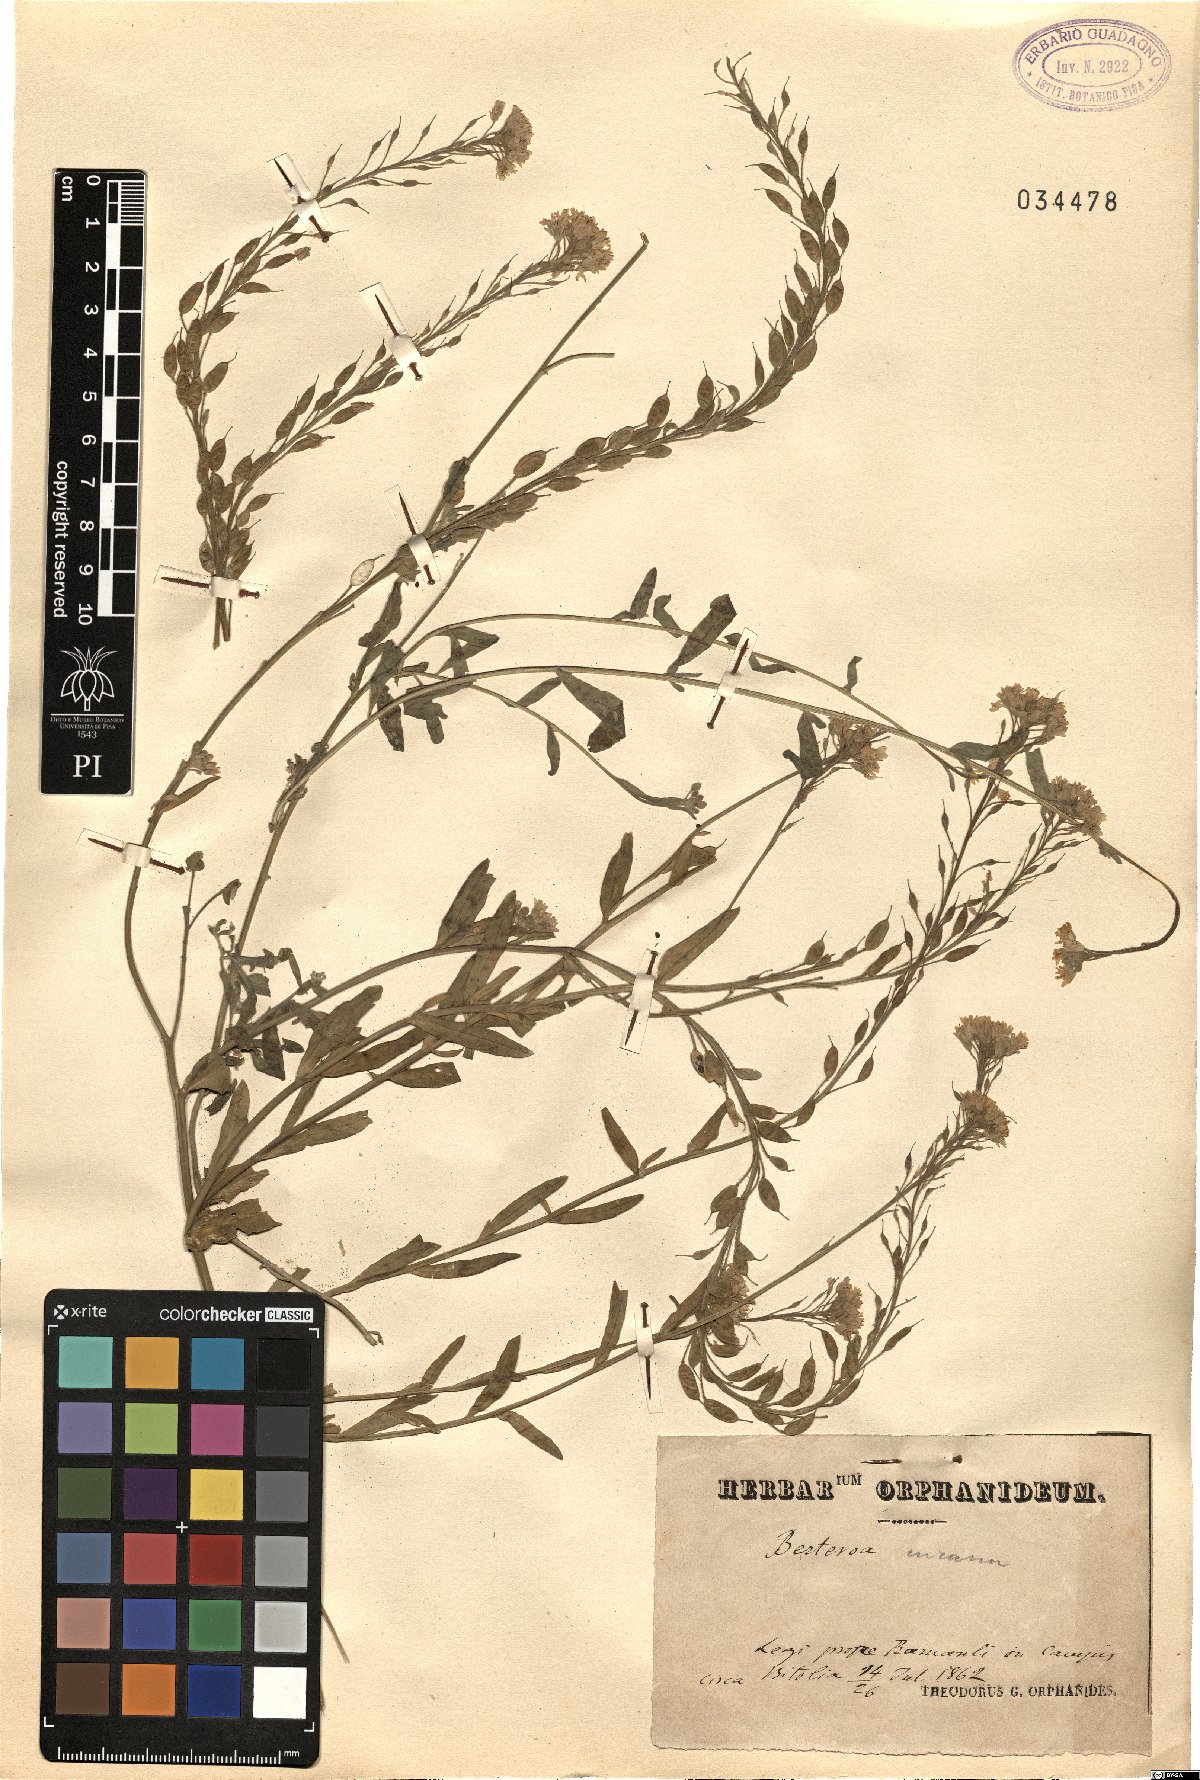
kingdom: Plantae
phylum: Tracheophyta
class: Magnoliopsida
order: Brassicales
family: Brassicaceae
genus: Berteroa
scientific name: Berteroa incana
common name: Hoary alison
